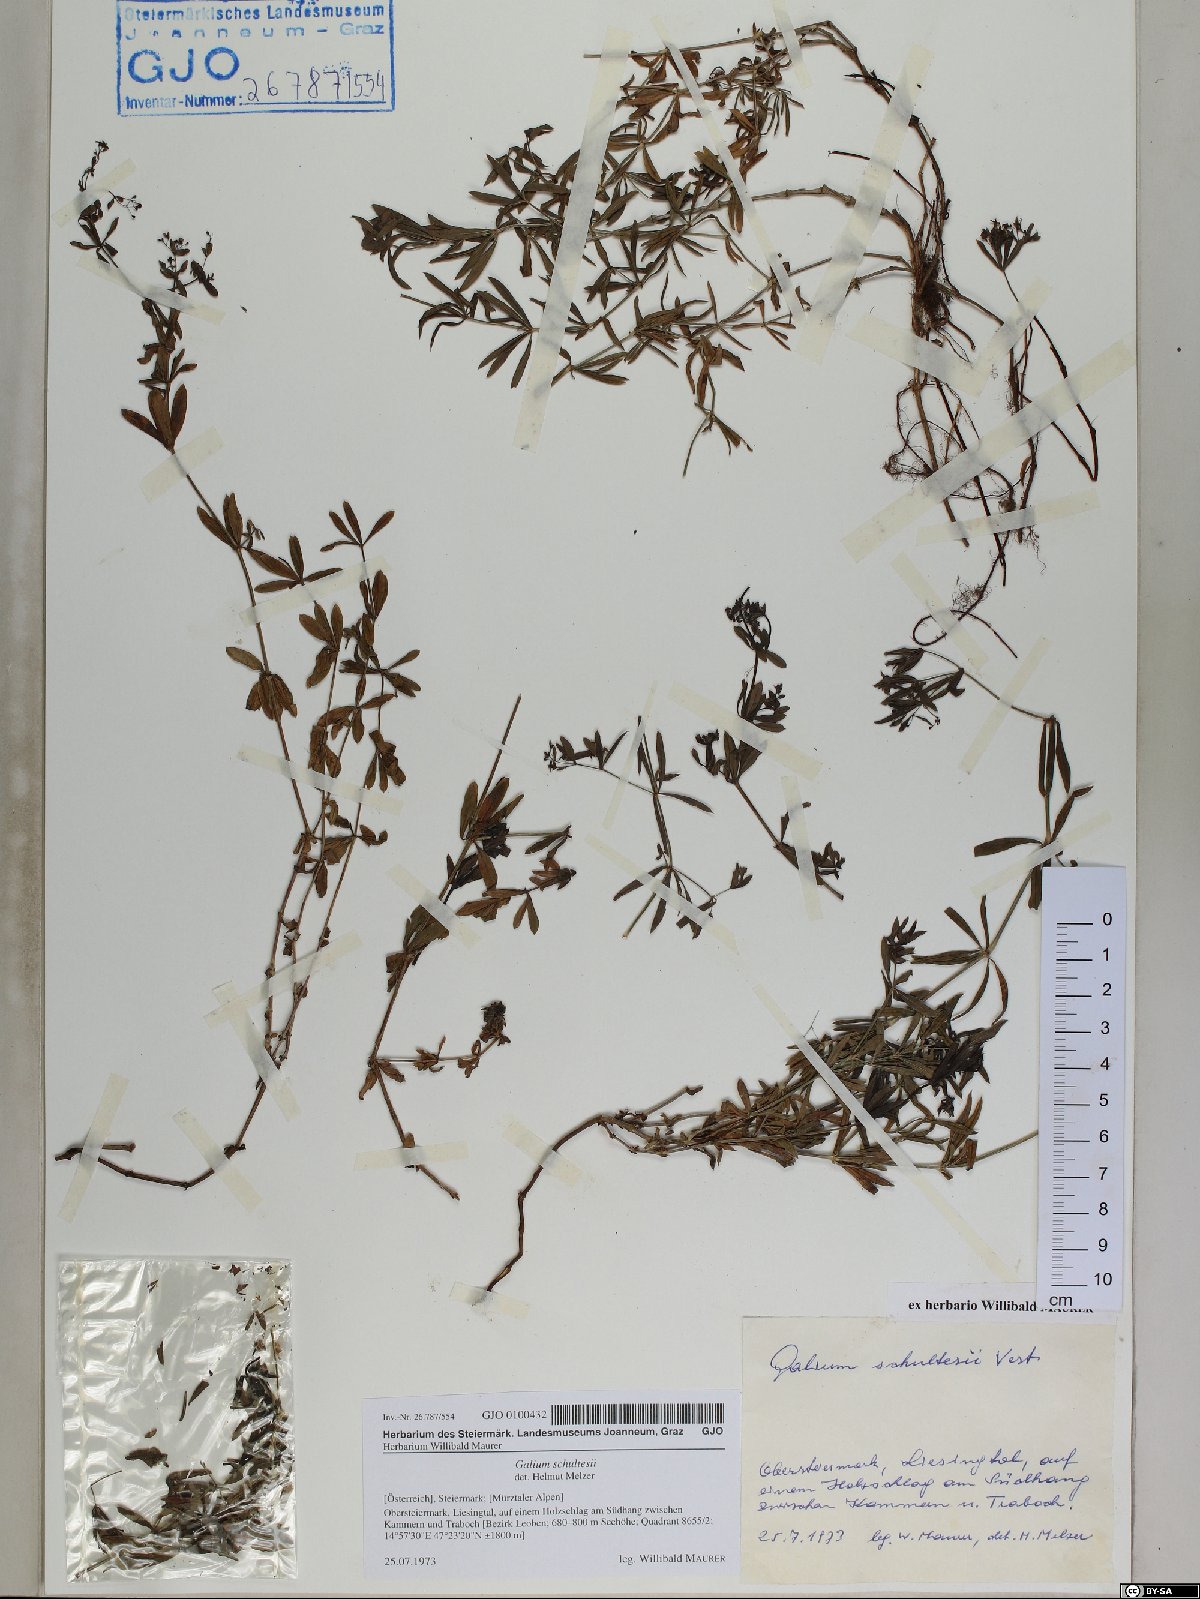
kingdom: Plantae
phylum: Tracheophyta
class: Magnoliopsida
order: Gentianales
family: Rubiaceae
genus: Galium
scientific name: Galium intermedium
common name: Bedstraw
